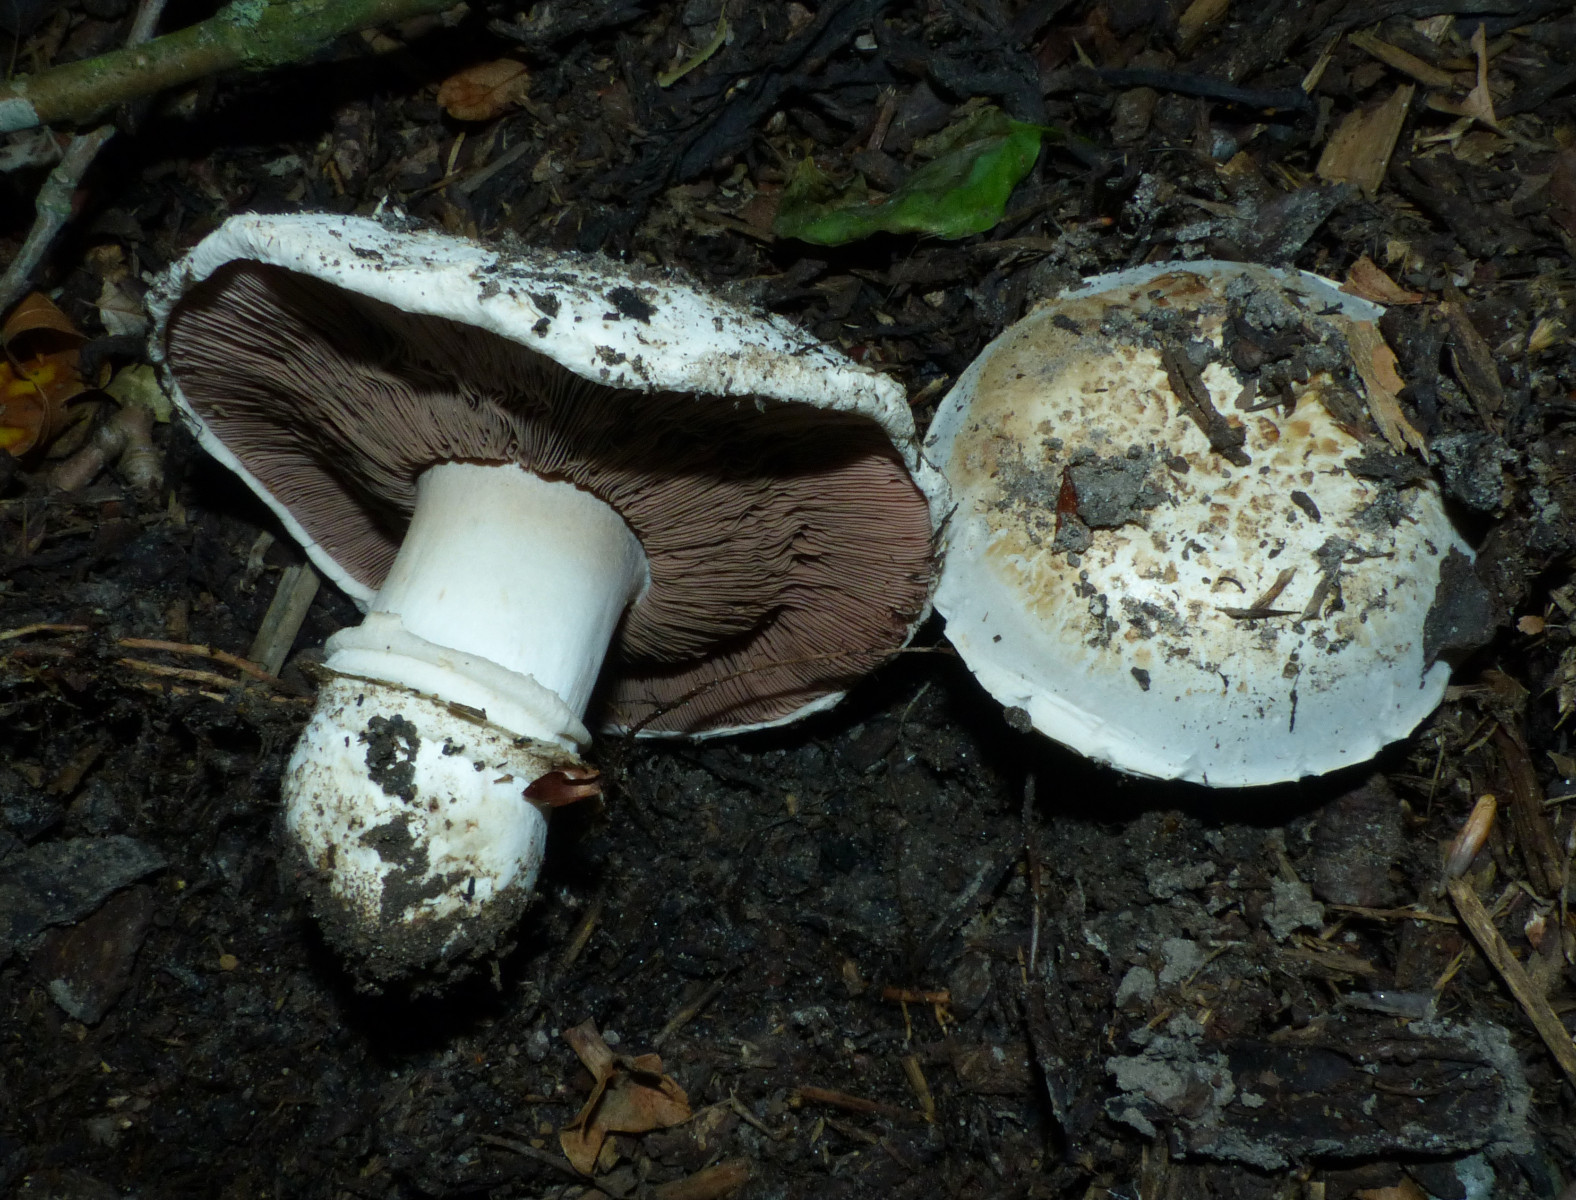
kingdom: Fungi
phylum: Basidiomycota
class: Agaricomycetes
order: Agaricales
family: Agaricaceae
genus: Agaricus
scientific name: Agaricus bitorquis
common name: vej-champignon
